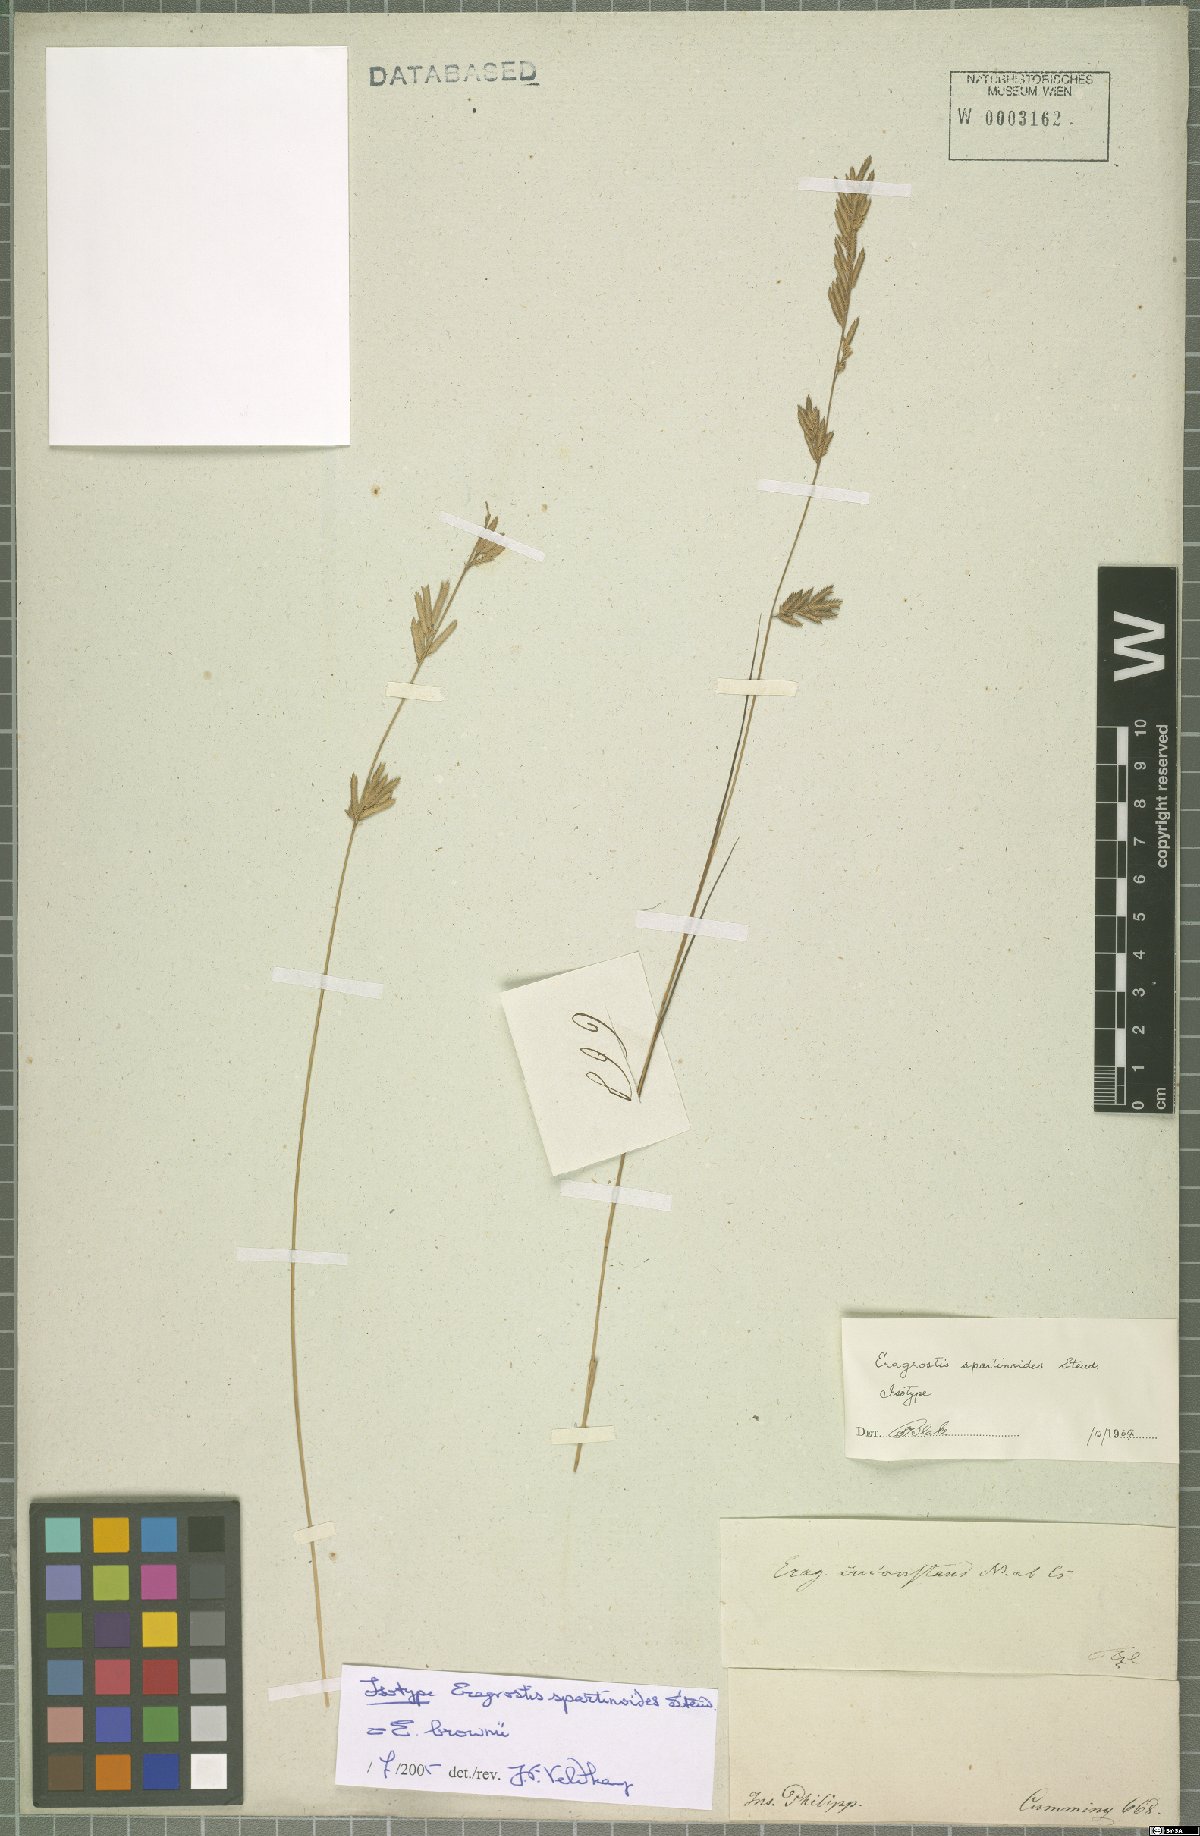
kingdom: Plantae
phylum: Tracheophyta
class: Liliopsida
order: Poales
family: Poaceae
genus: Eragrostis
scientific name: Eragrostis brownii
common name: Lovegrass
